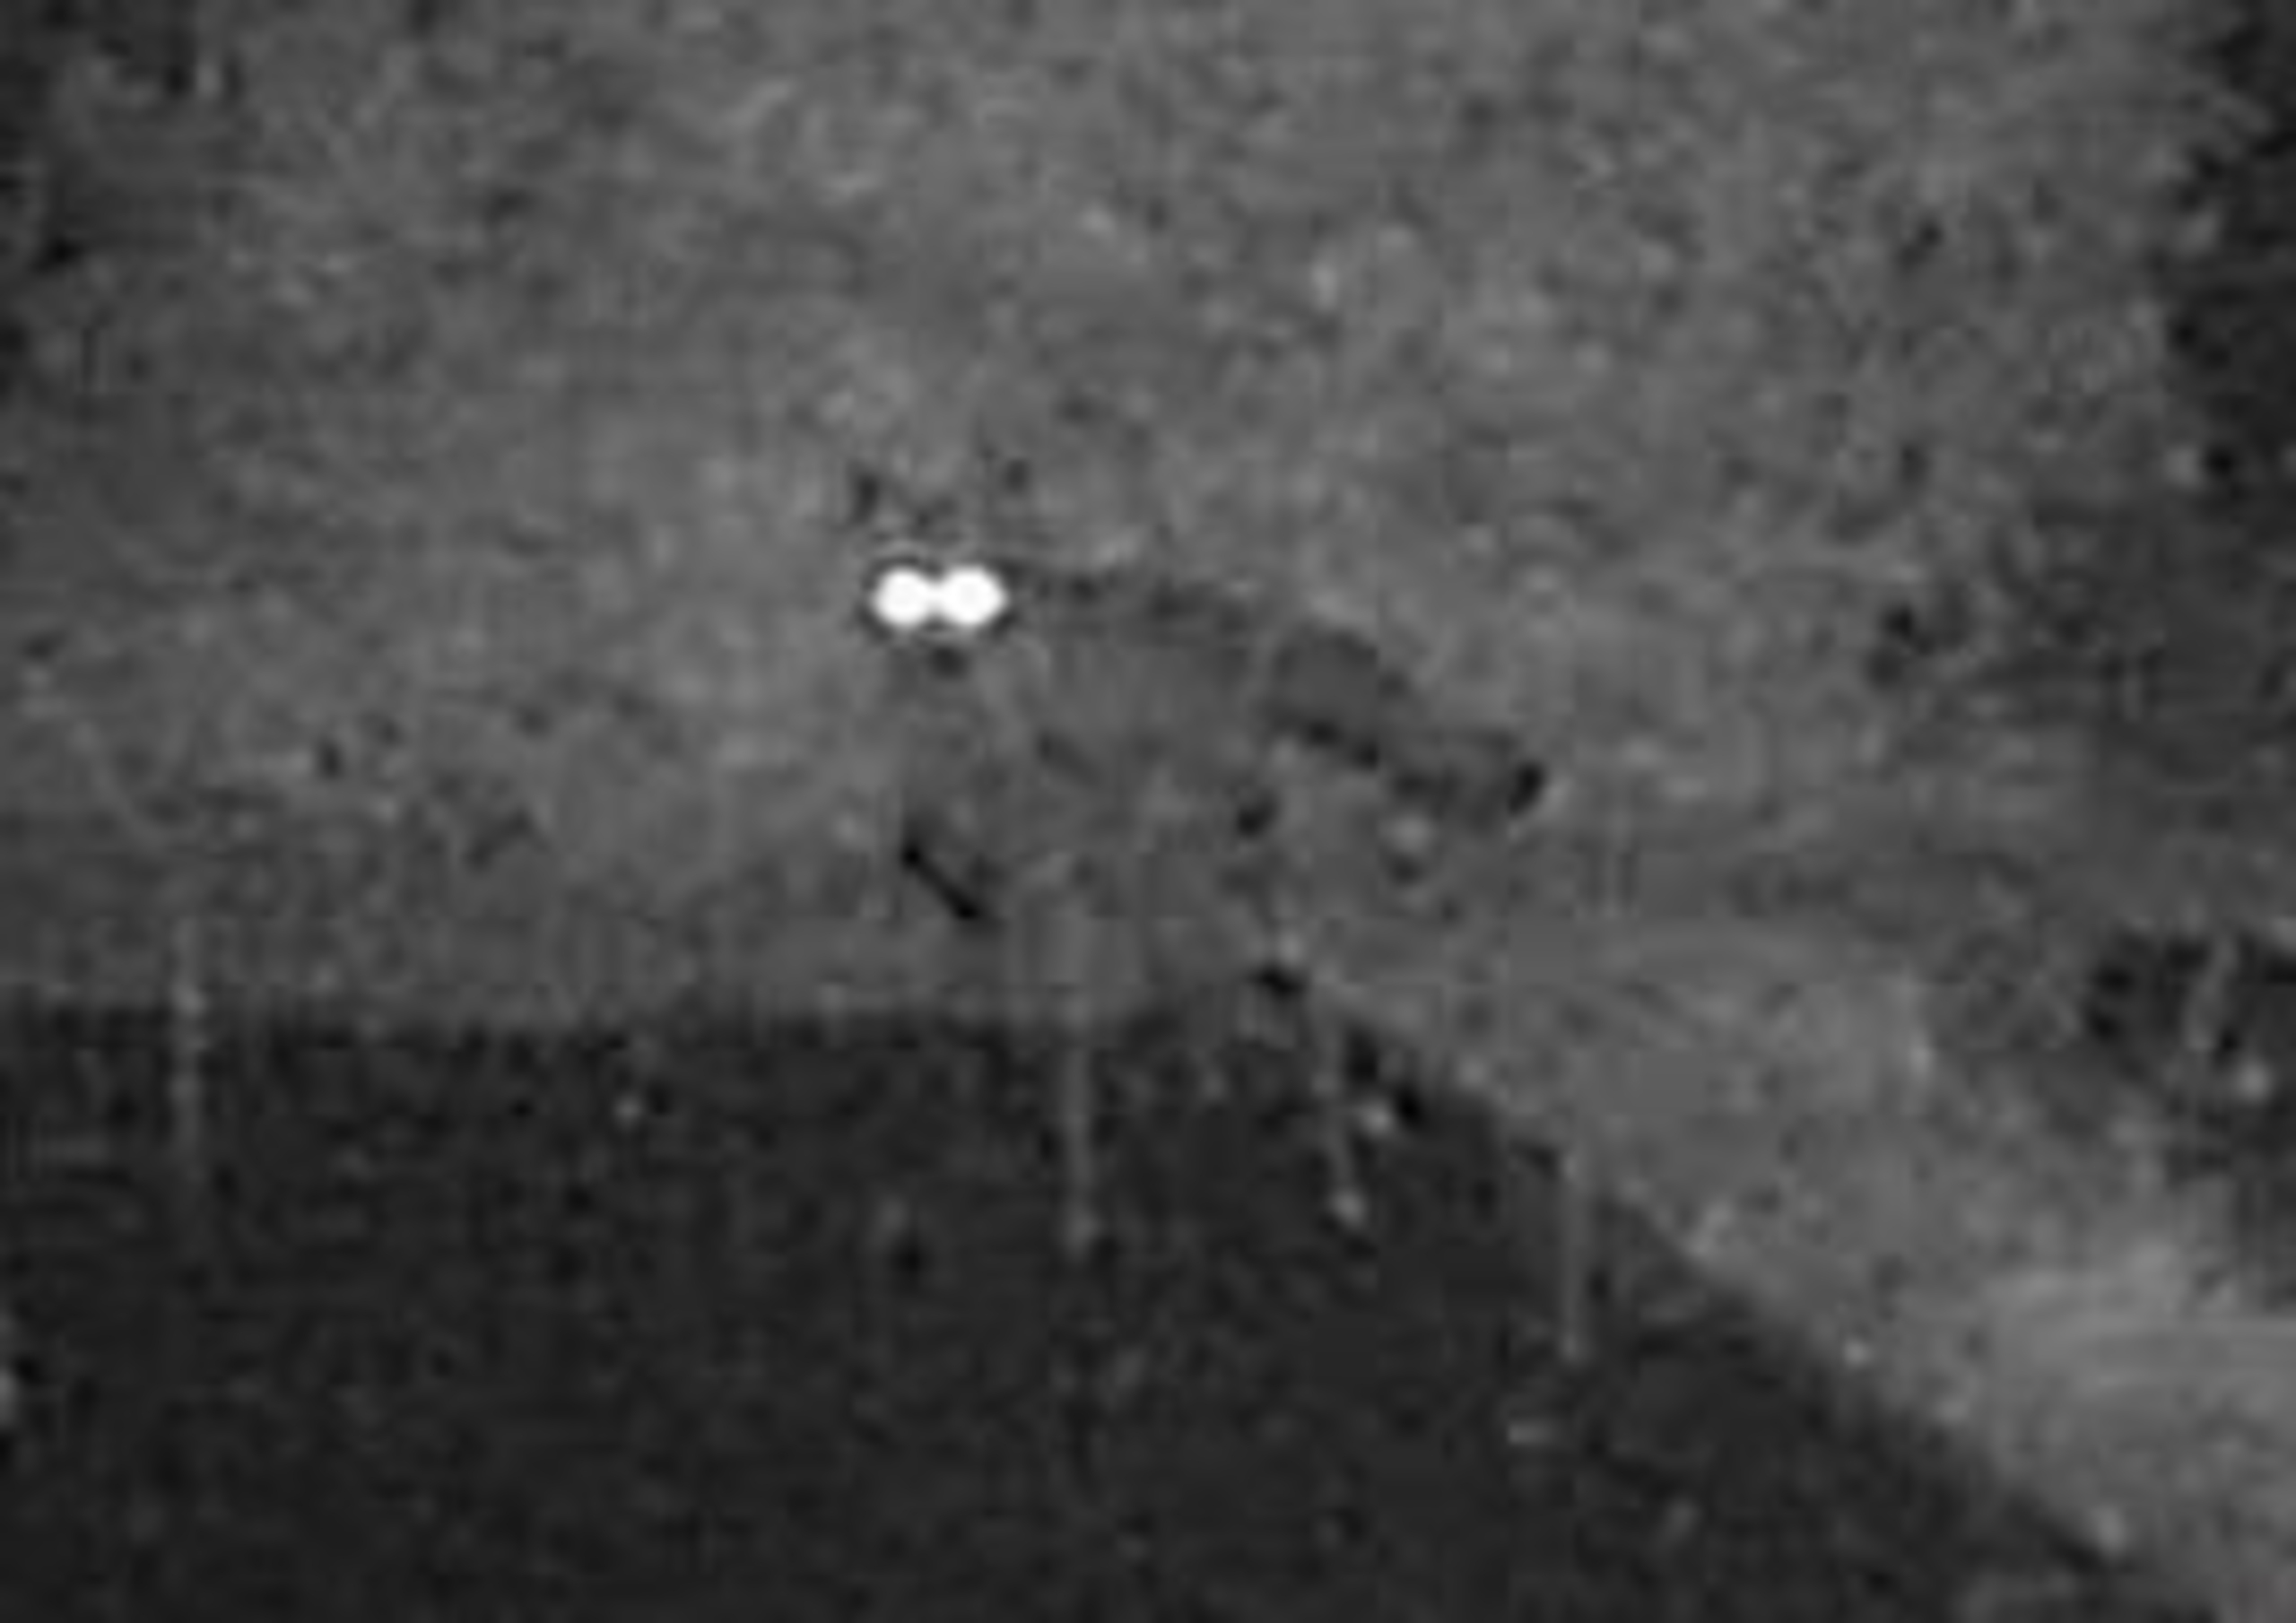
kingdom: Animalia
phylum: Chordata
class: Mammalia
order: Carnivora
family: Canidae
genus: Vulpes
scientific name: Vulpes vulpes
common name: Ræv
